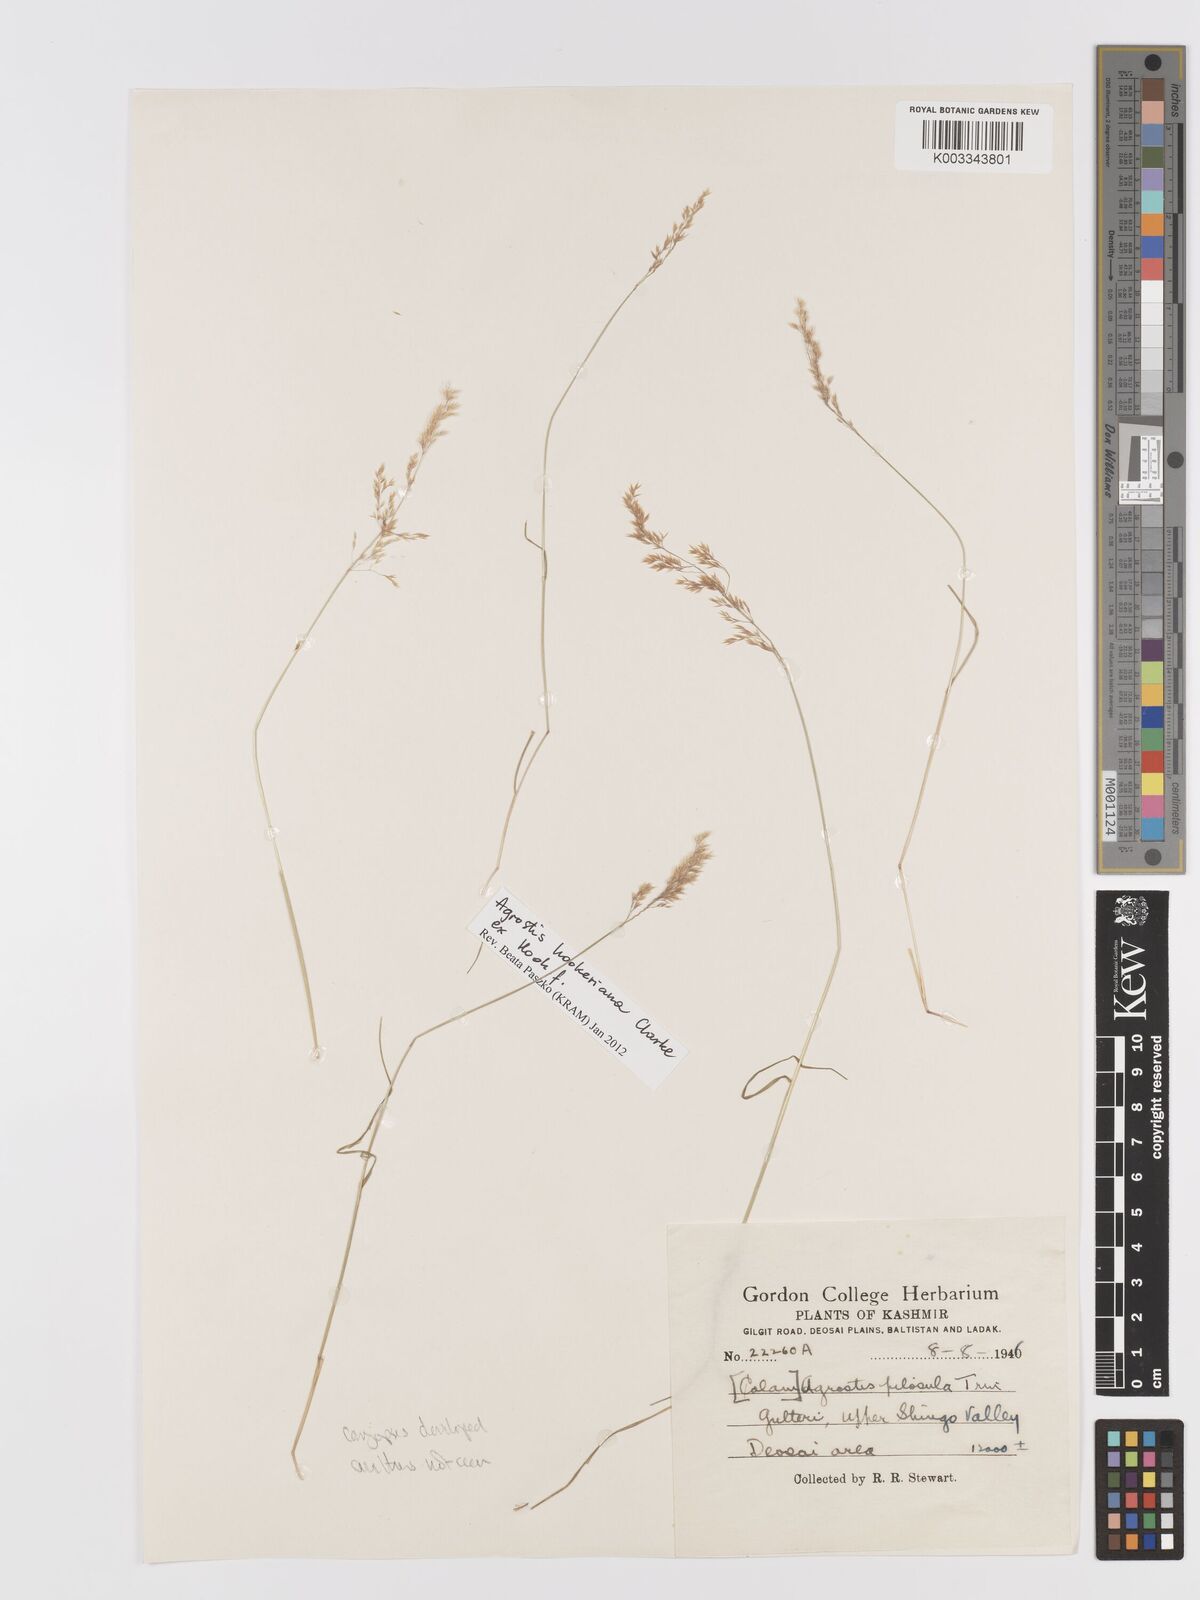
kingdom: Plantae
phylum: Tracheophyta
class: Liliopsida
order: Poales
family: Poaceae
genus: Agrostis
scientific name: Agrostis pilosula
